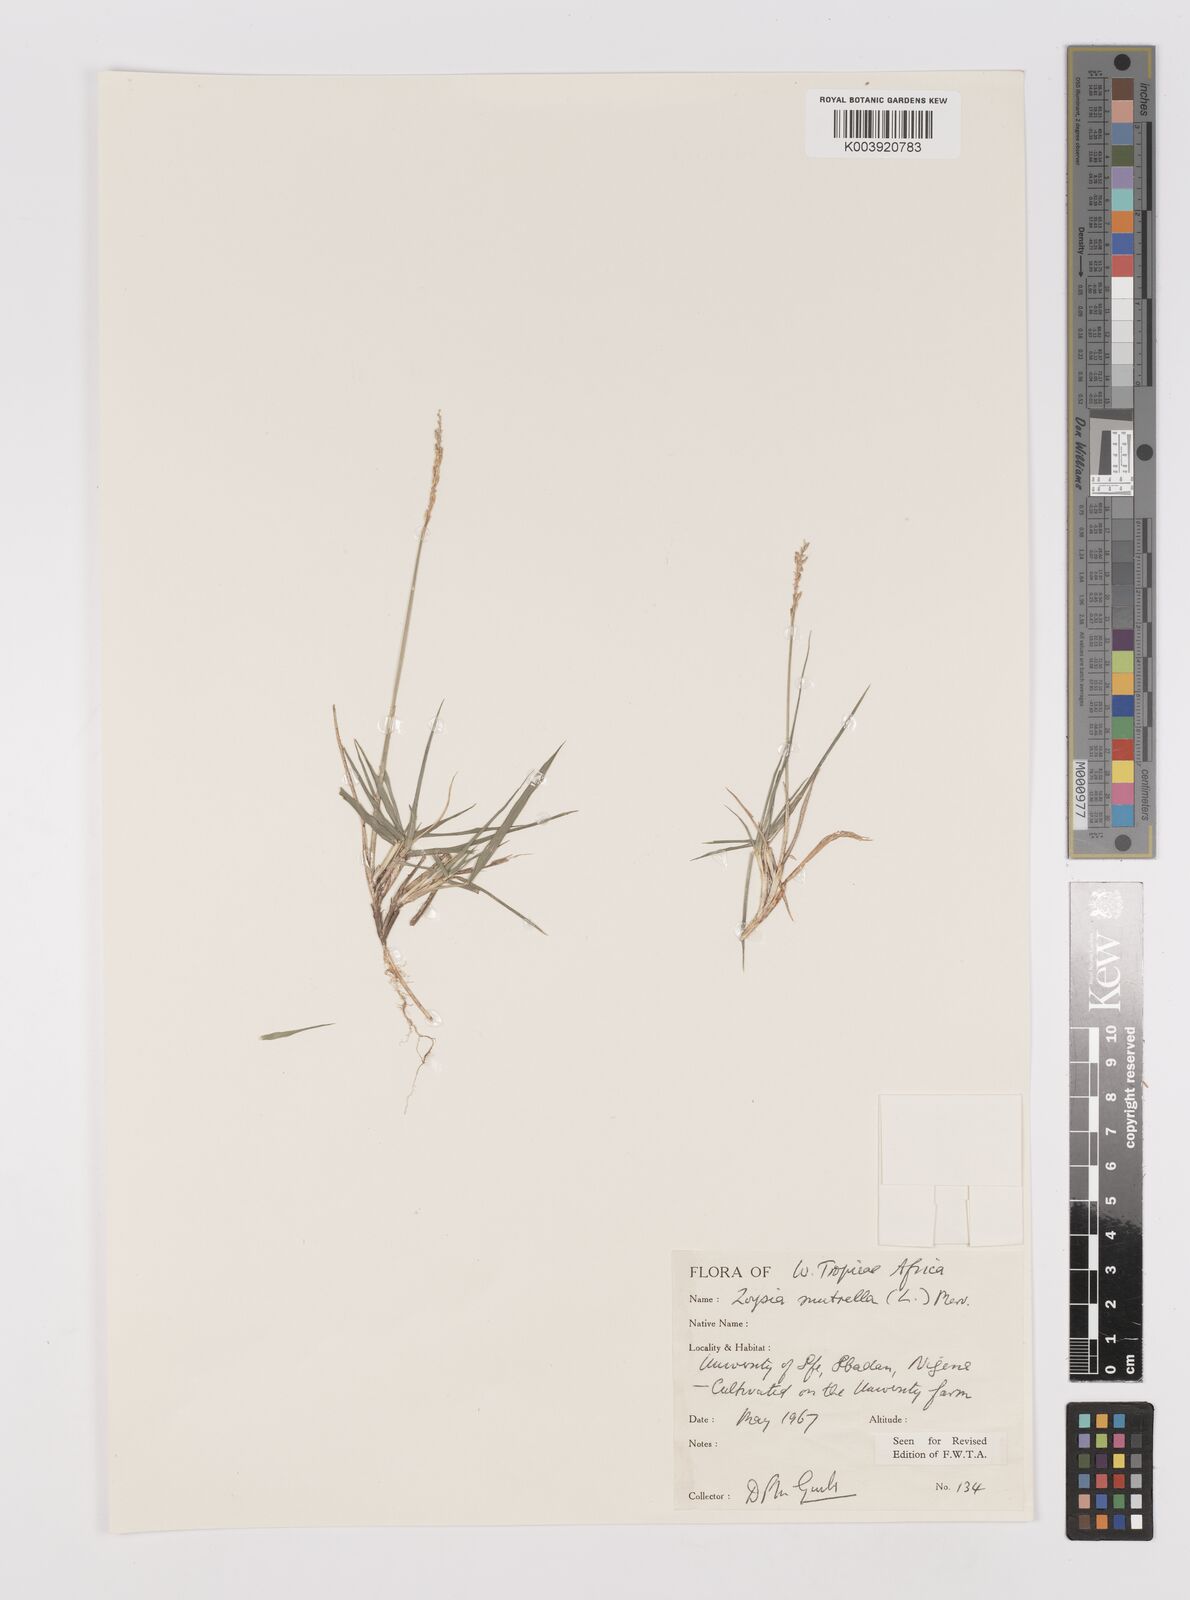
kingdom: Plantae
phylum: Tracheophyta
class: Liliopsida
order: Poales
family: Poaceae
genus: Zoysia
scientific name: Zoysia matrella
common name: Manila grass
